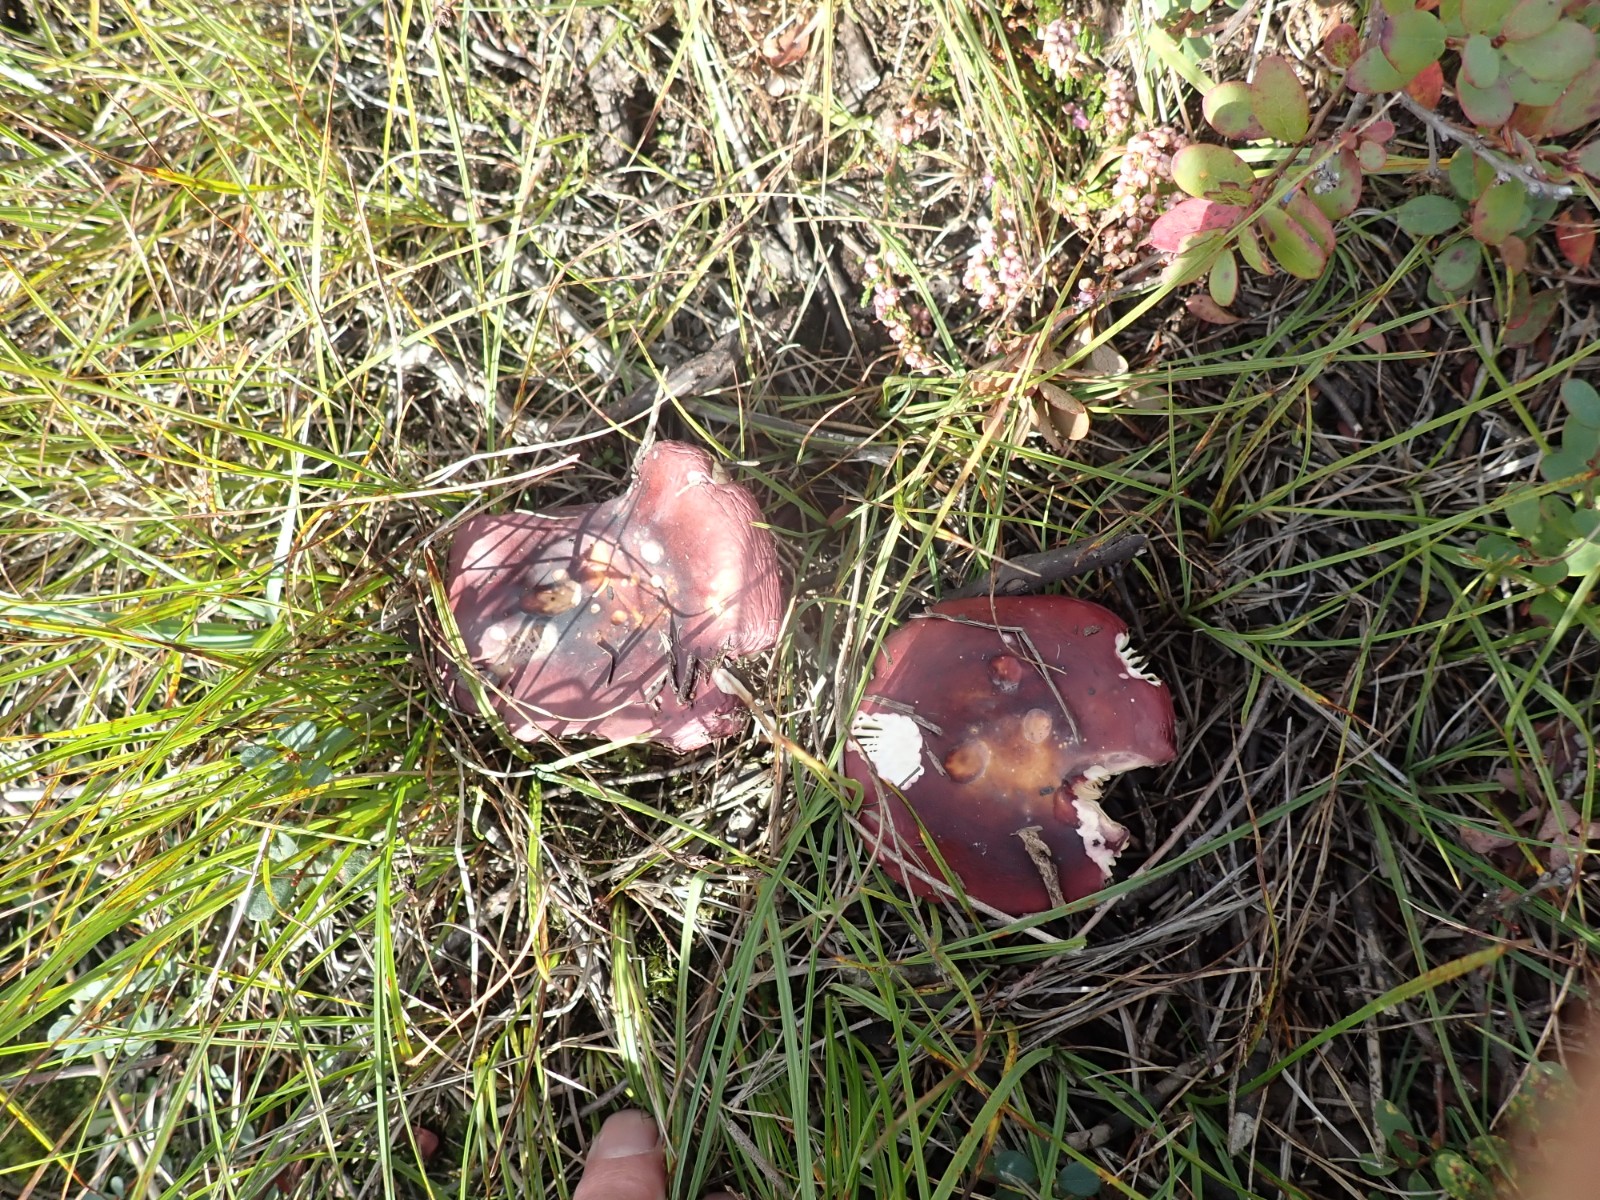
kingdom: Fungi
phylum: Basidiomycota
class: Agaricomycetes
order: Russulales
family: Russulaceae
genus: Russula
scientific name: Russula subrubens
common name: pile-skørhat
